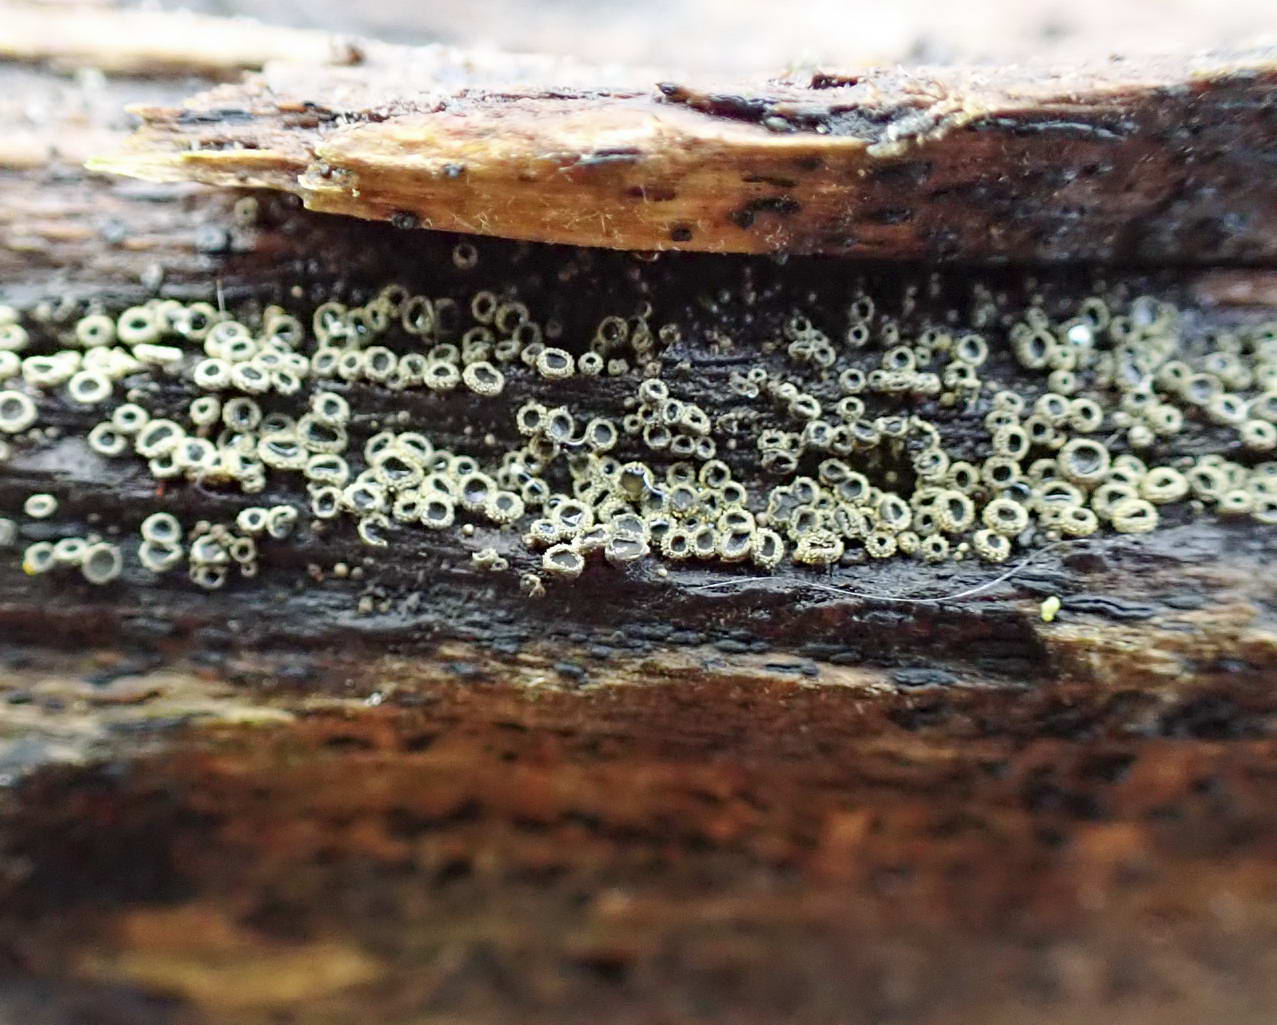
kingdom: Fungi
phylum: Ascomycota
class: Leotiomycetes
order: Helotiales
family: Lachnaceae
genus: Neodasyscypha
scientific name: Neodasyscypha cerina
